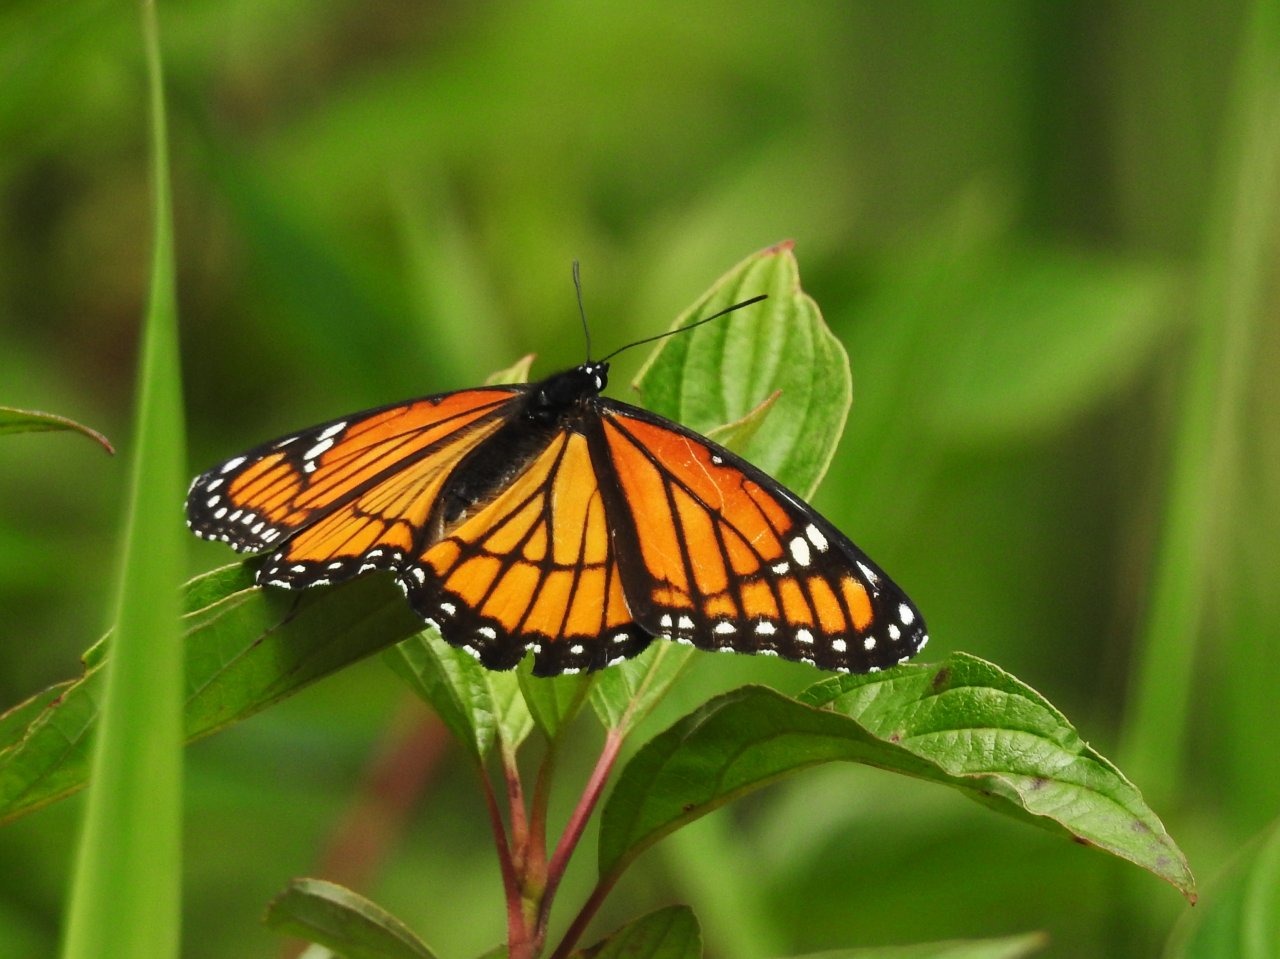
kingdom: Animalia
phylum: Arthropoda
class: Insecta
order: Lepidoptera
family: Nymphalidae
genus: Limenitis
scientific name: Limenitis archippus
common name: Viceroy
